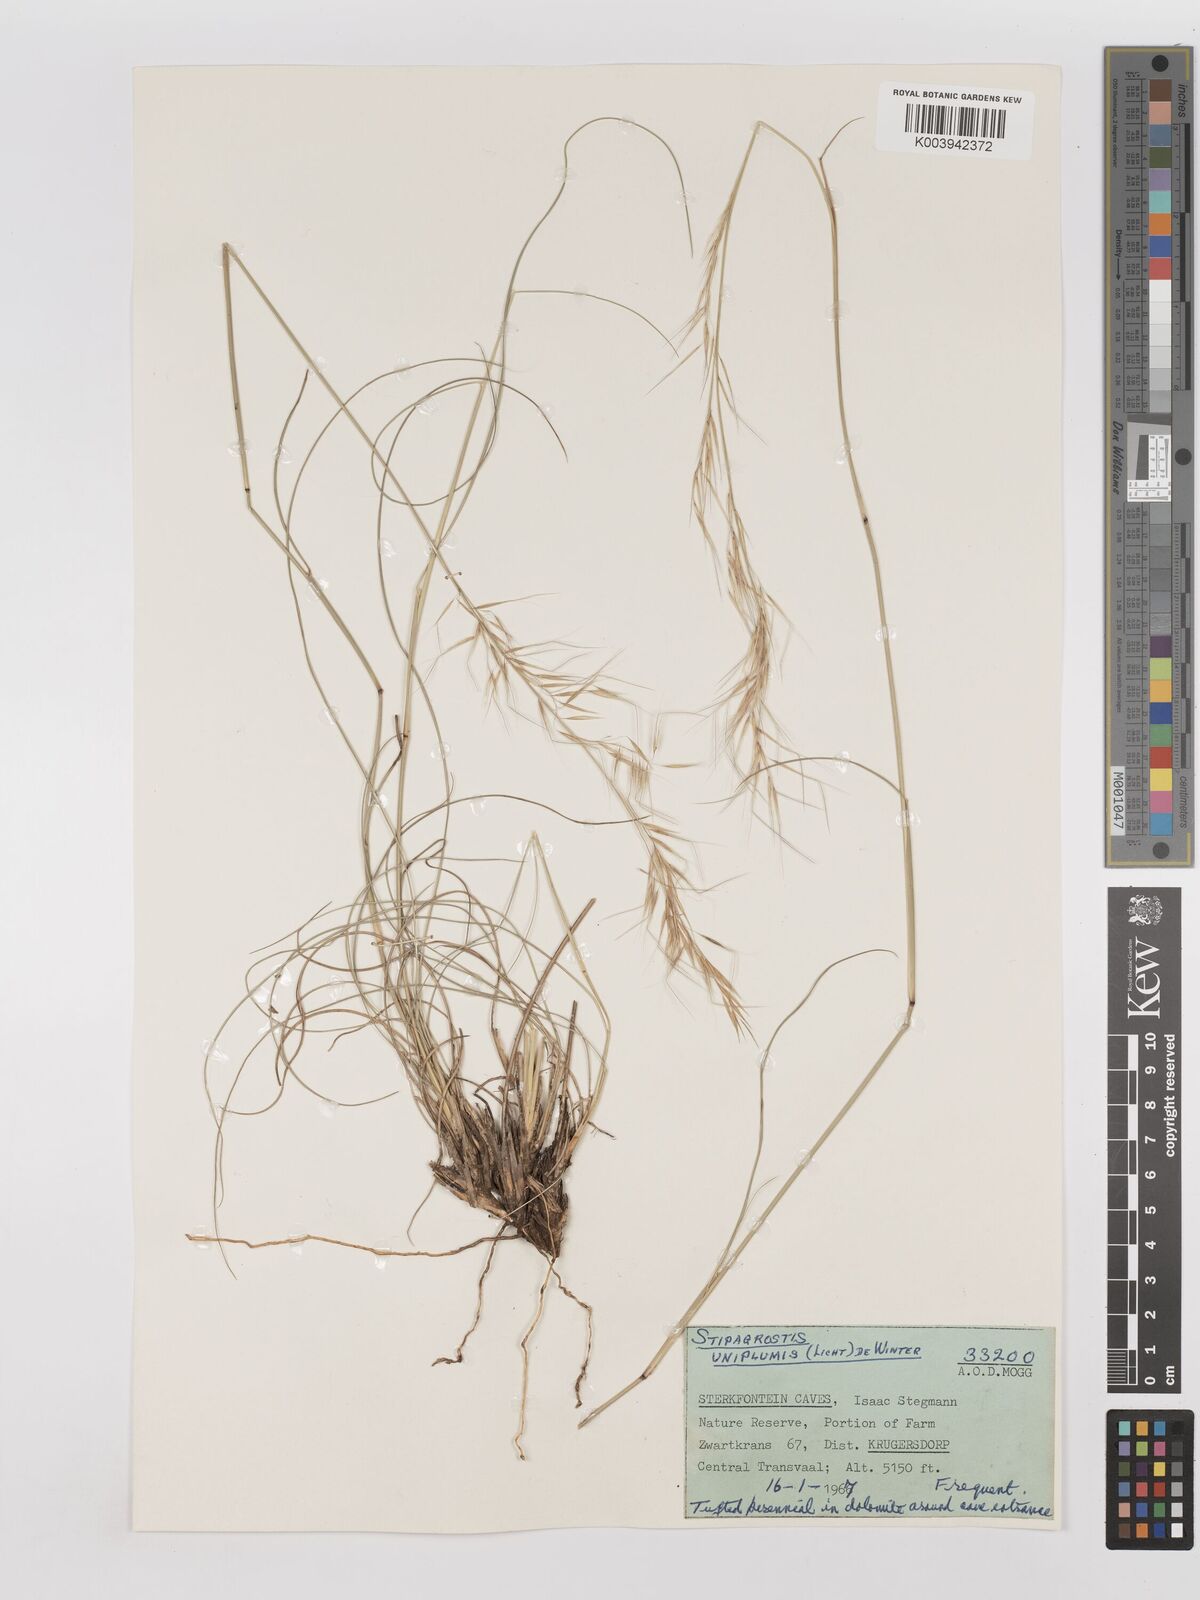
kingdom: Plantae
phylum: Tracheophyta
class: Liliopsida
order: Poales
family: Poaceae
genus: Stipagrostis
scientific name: Stipagrostis uniplumis
